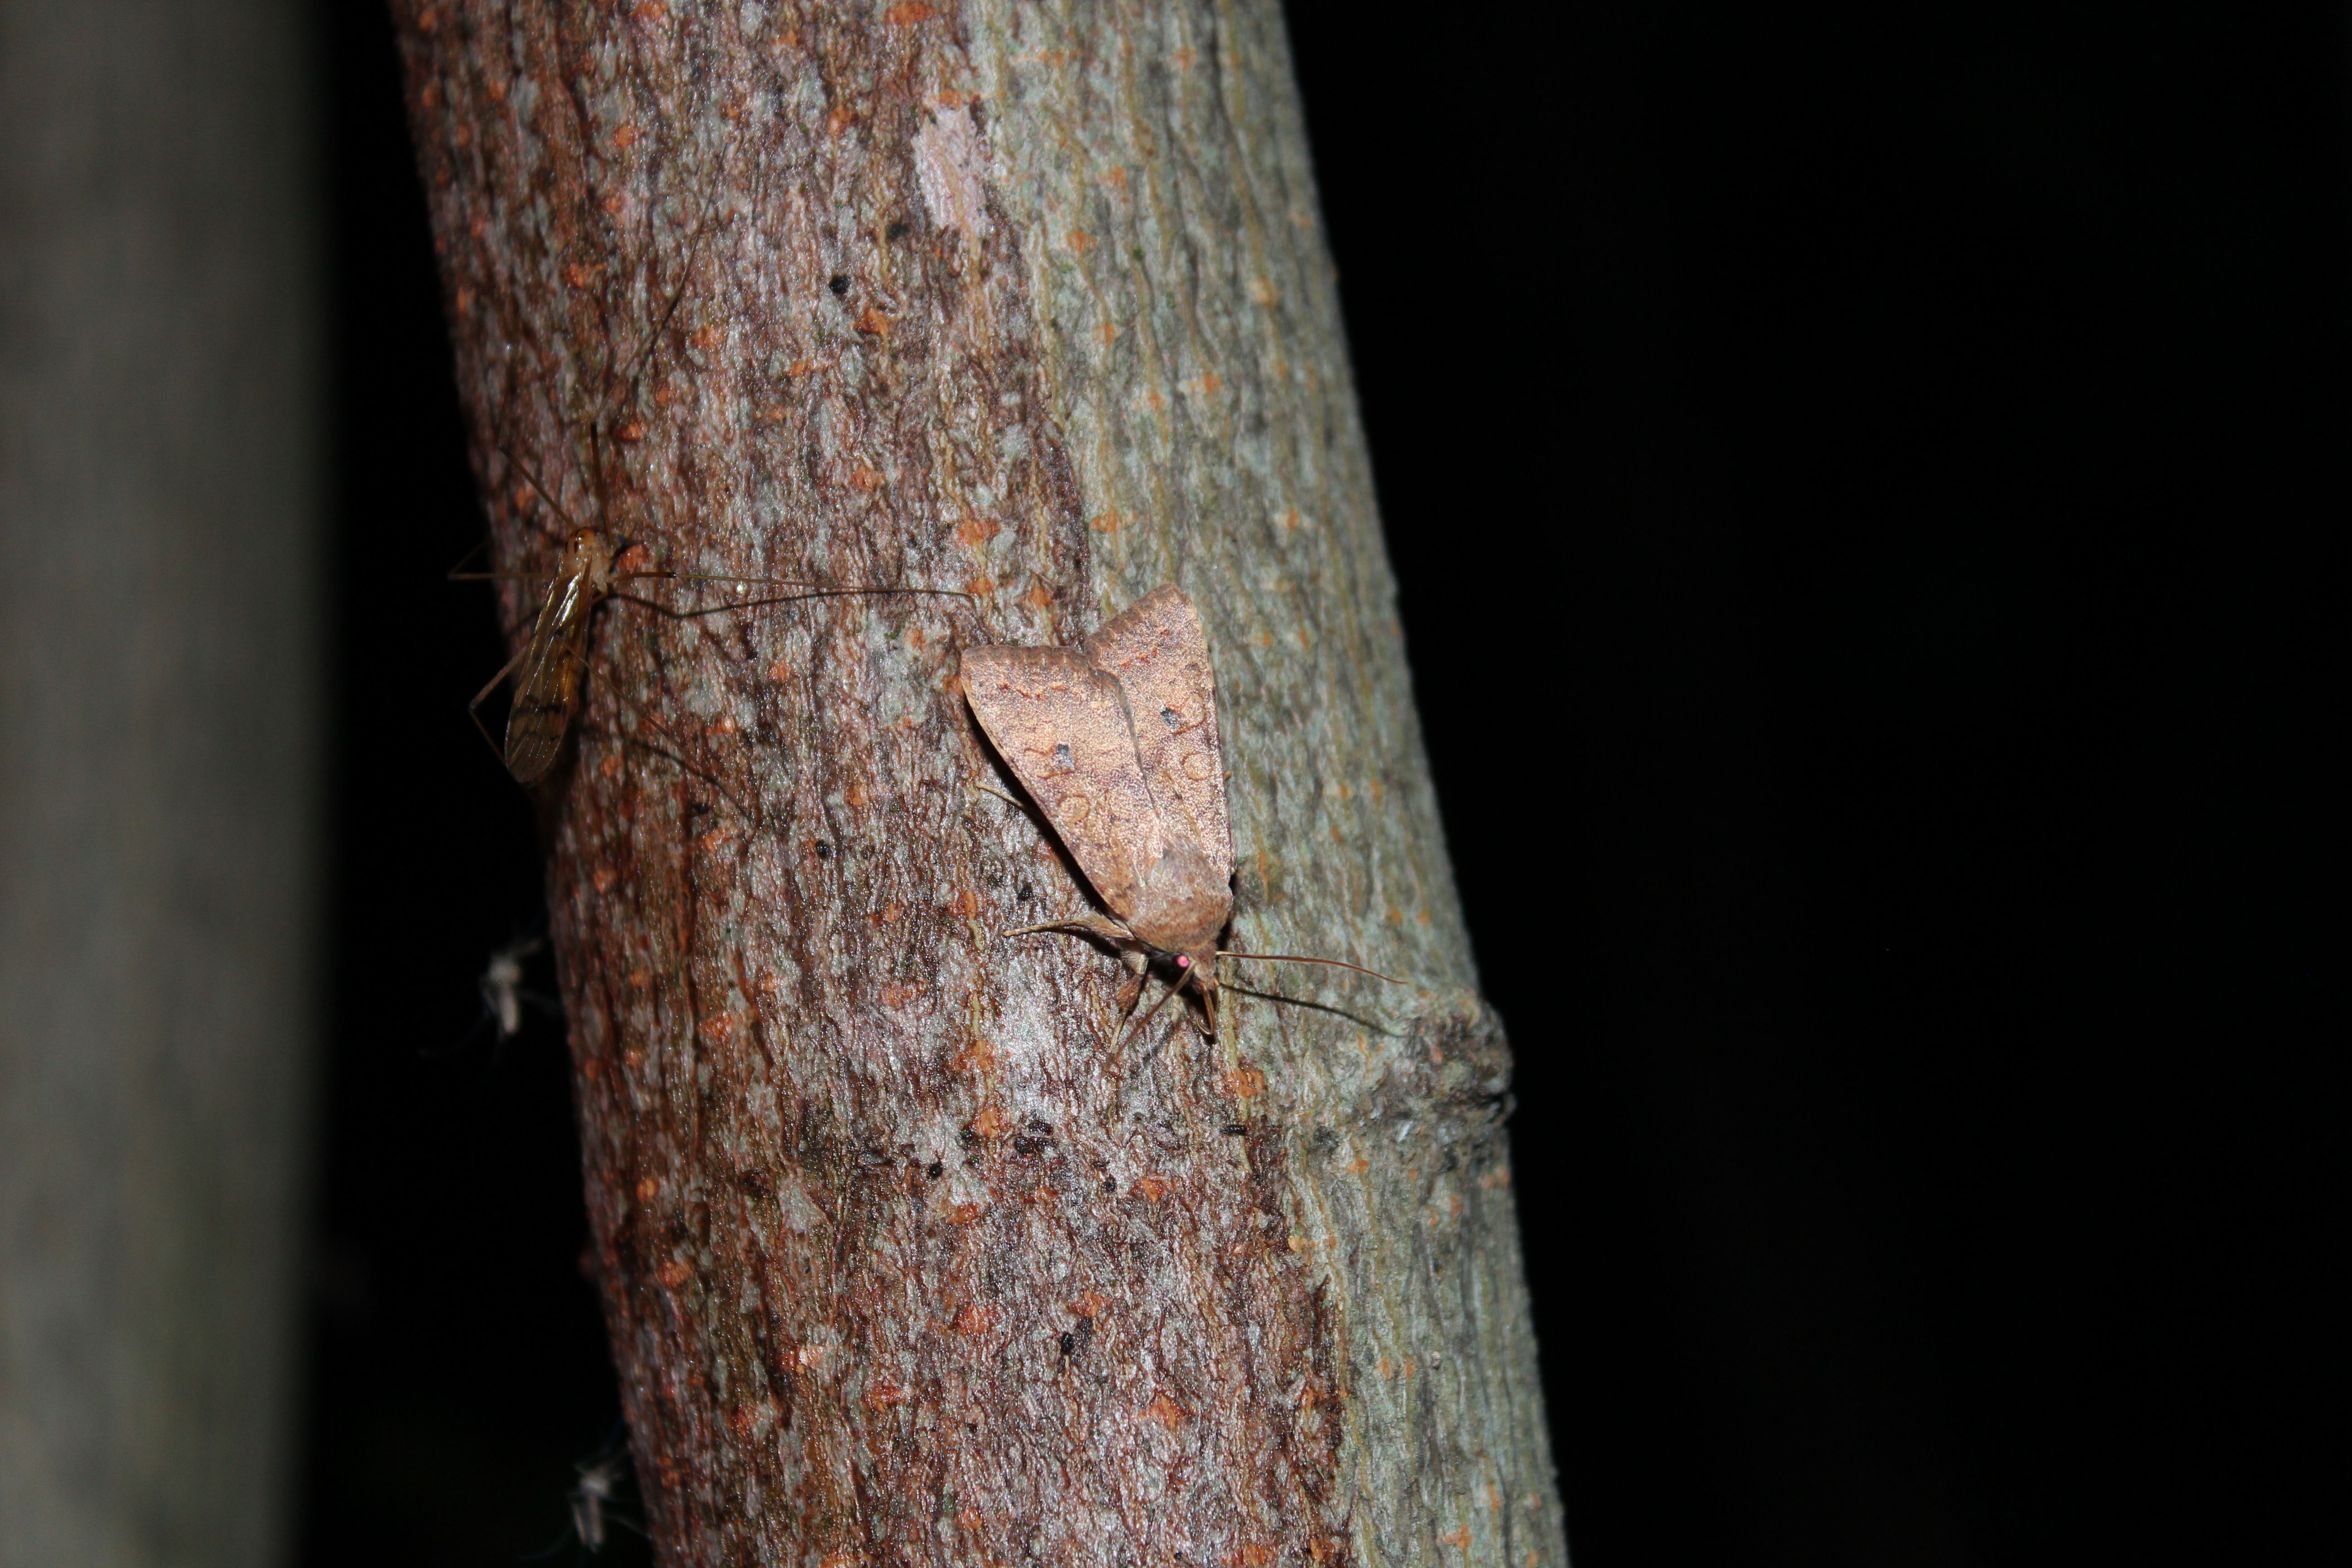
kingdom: Animalia
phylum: Arthropoda
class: Insecta
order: Lepidoptera
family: Noctuidae
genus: Sunira
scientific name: Sunira circellaris
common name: Brick
